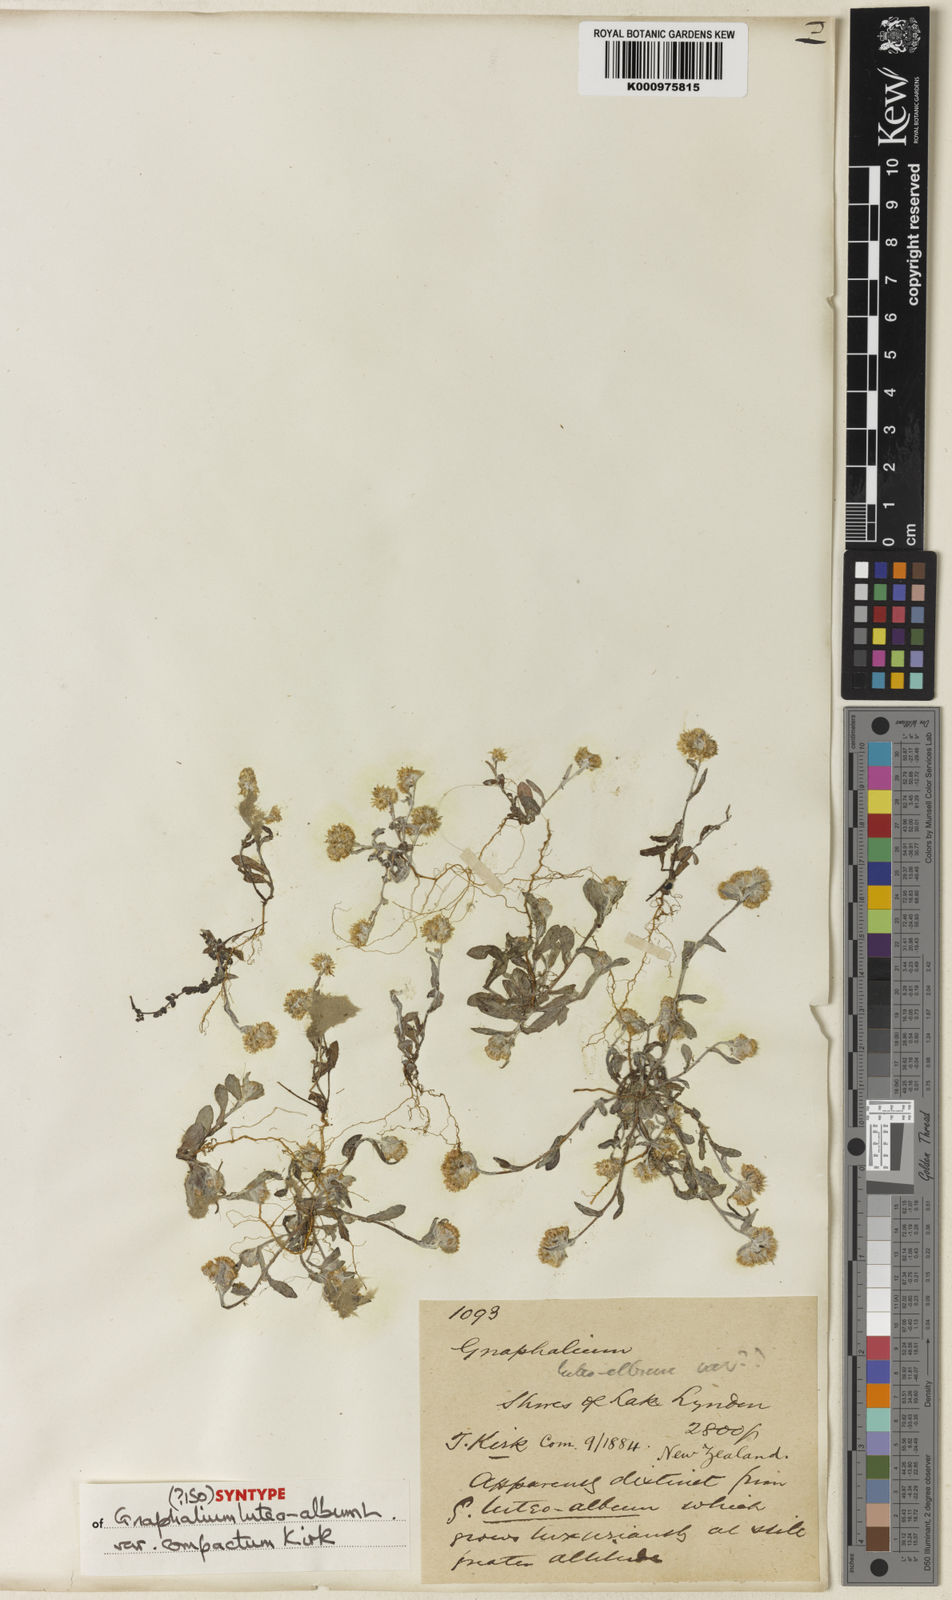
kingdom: Plantae
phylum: Tracheophyta
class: Magnoliopsida
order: Asterales
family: Asteraceae
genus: Helichrysum
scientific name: Helichrysum luteoalbum
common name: Daisy
